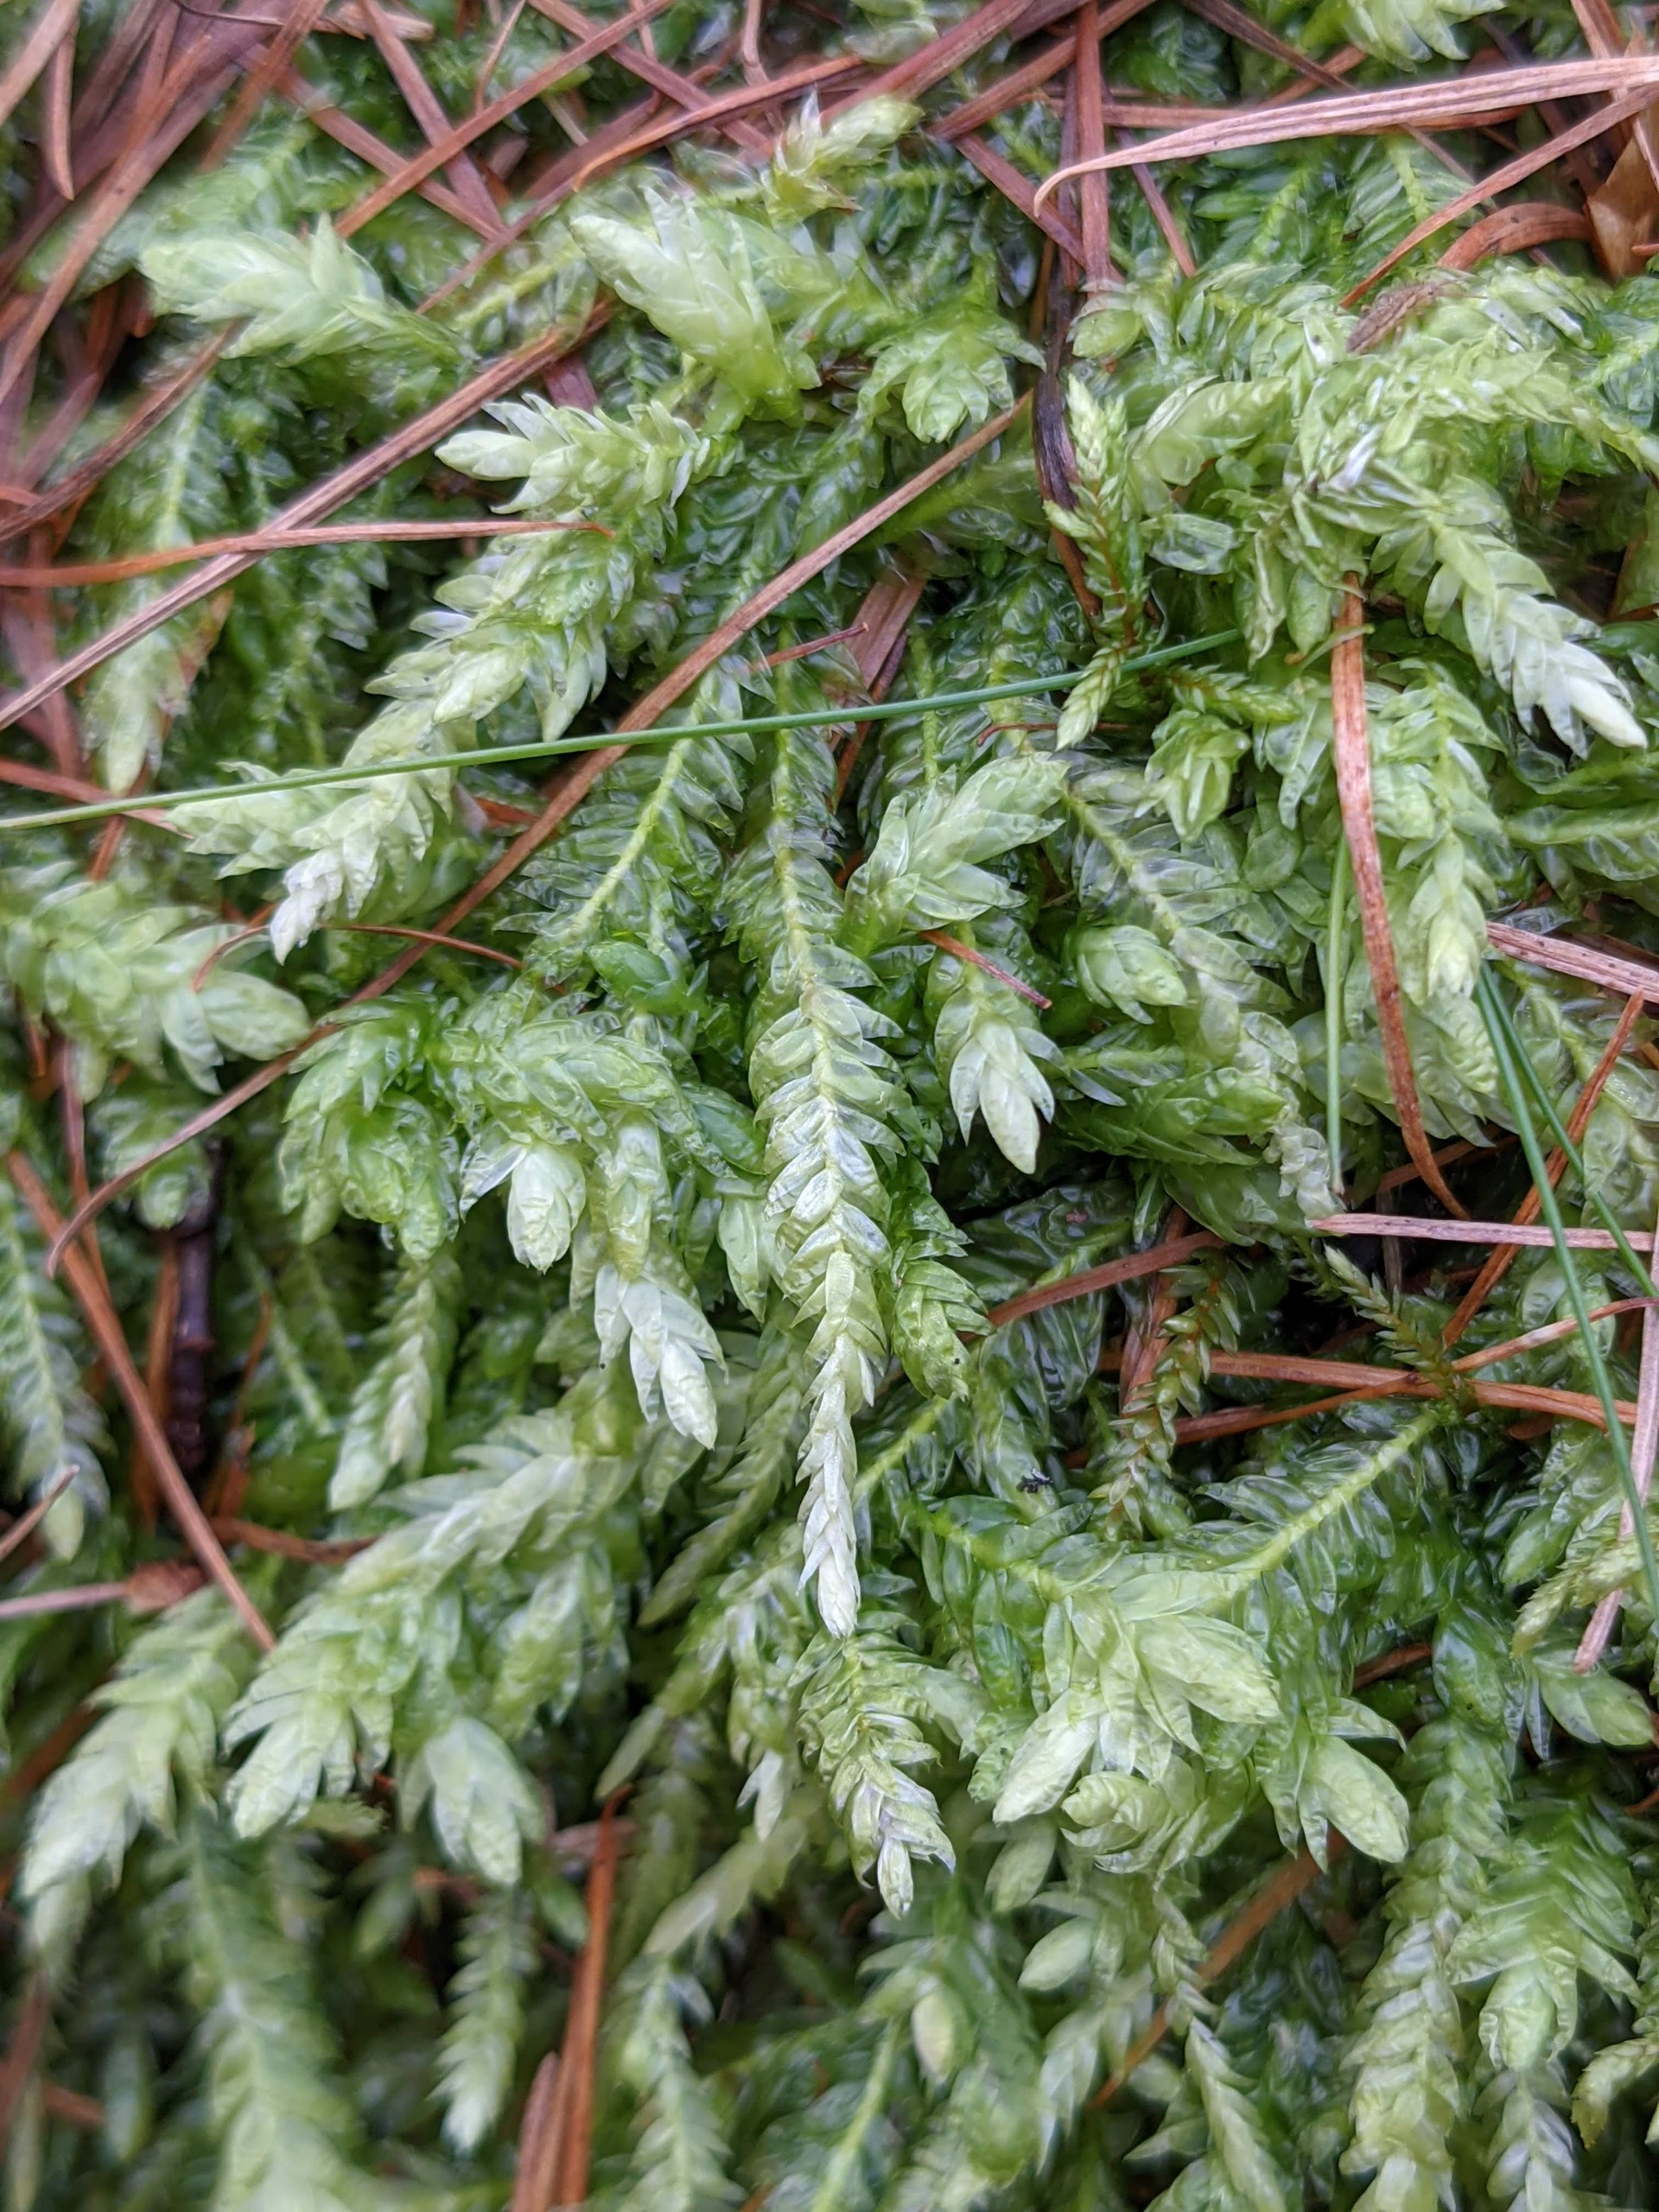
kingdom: Plantae
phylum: Bryophyta
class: Bryopsida
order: Hypnales
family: Plagiotheciaceae
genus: Plagiothecium
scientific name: Plagiothecium undulatum
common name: Bølget tæppemos
